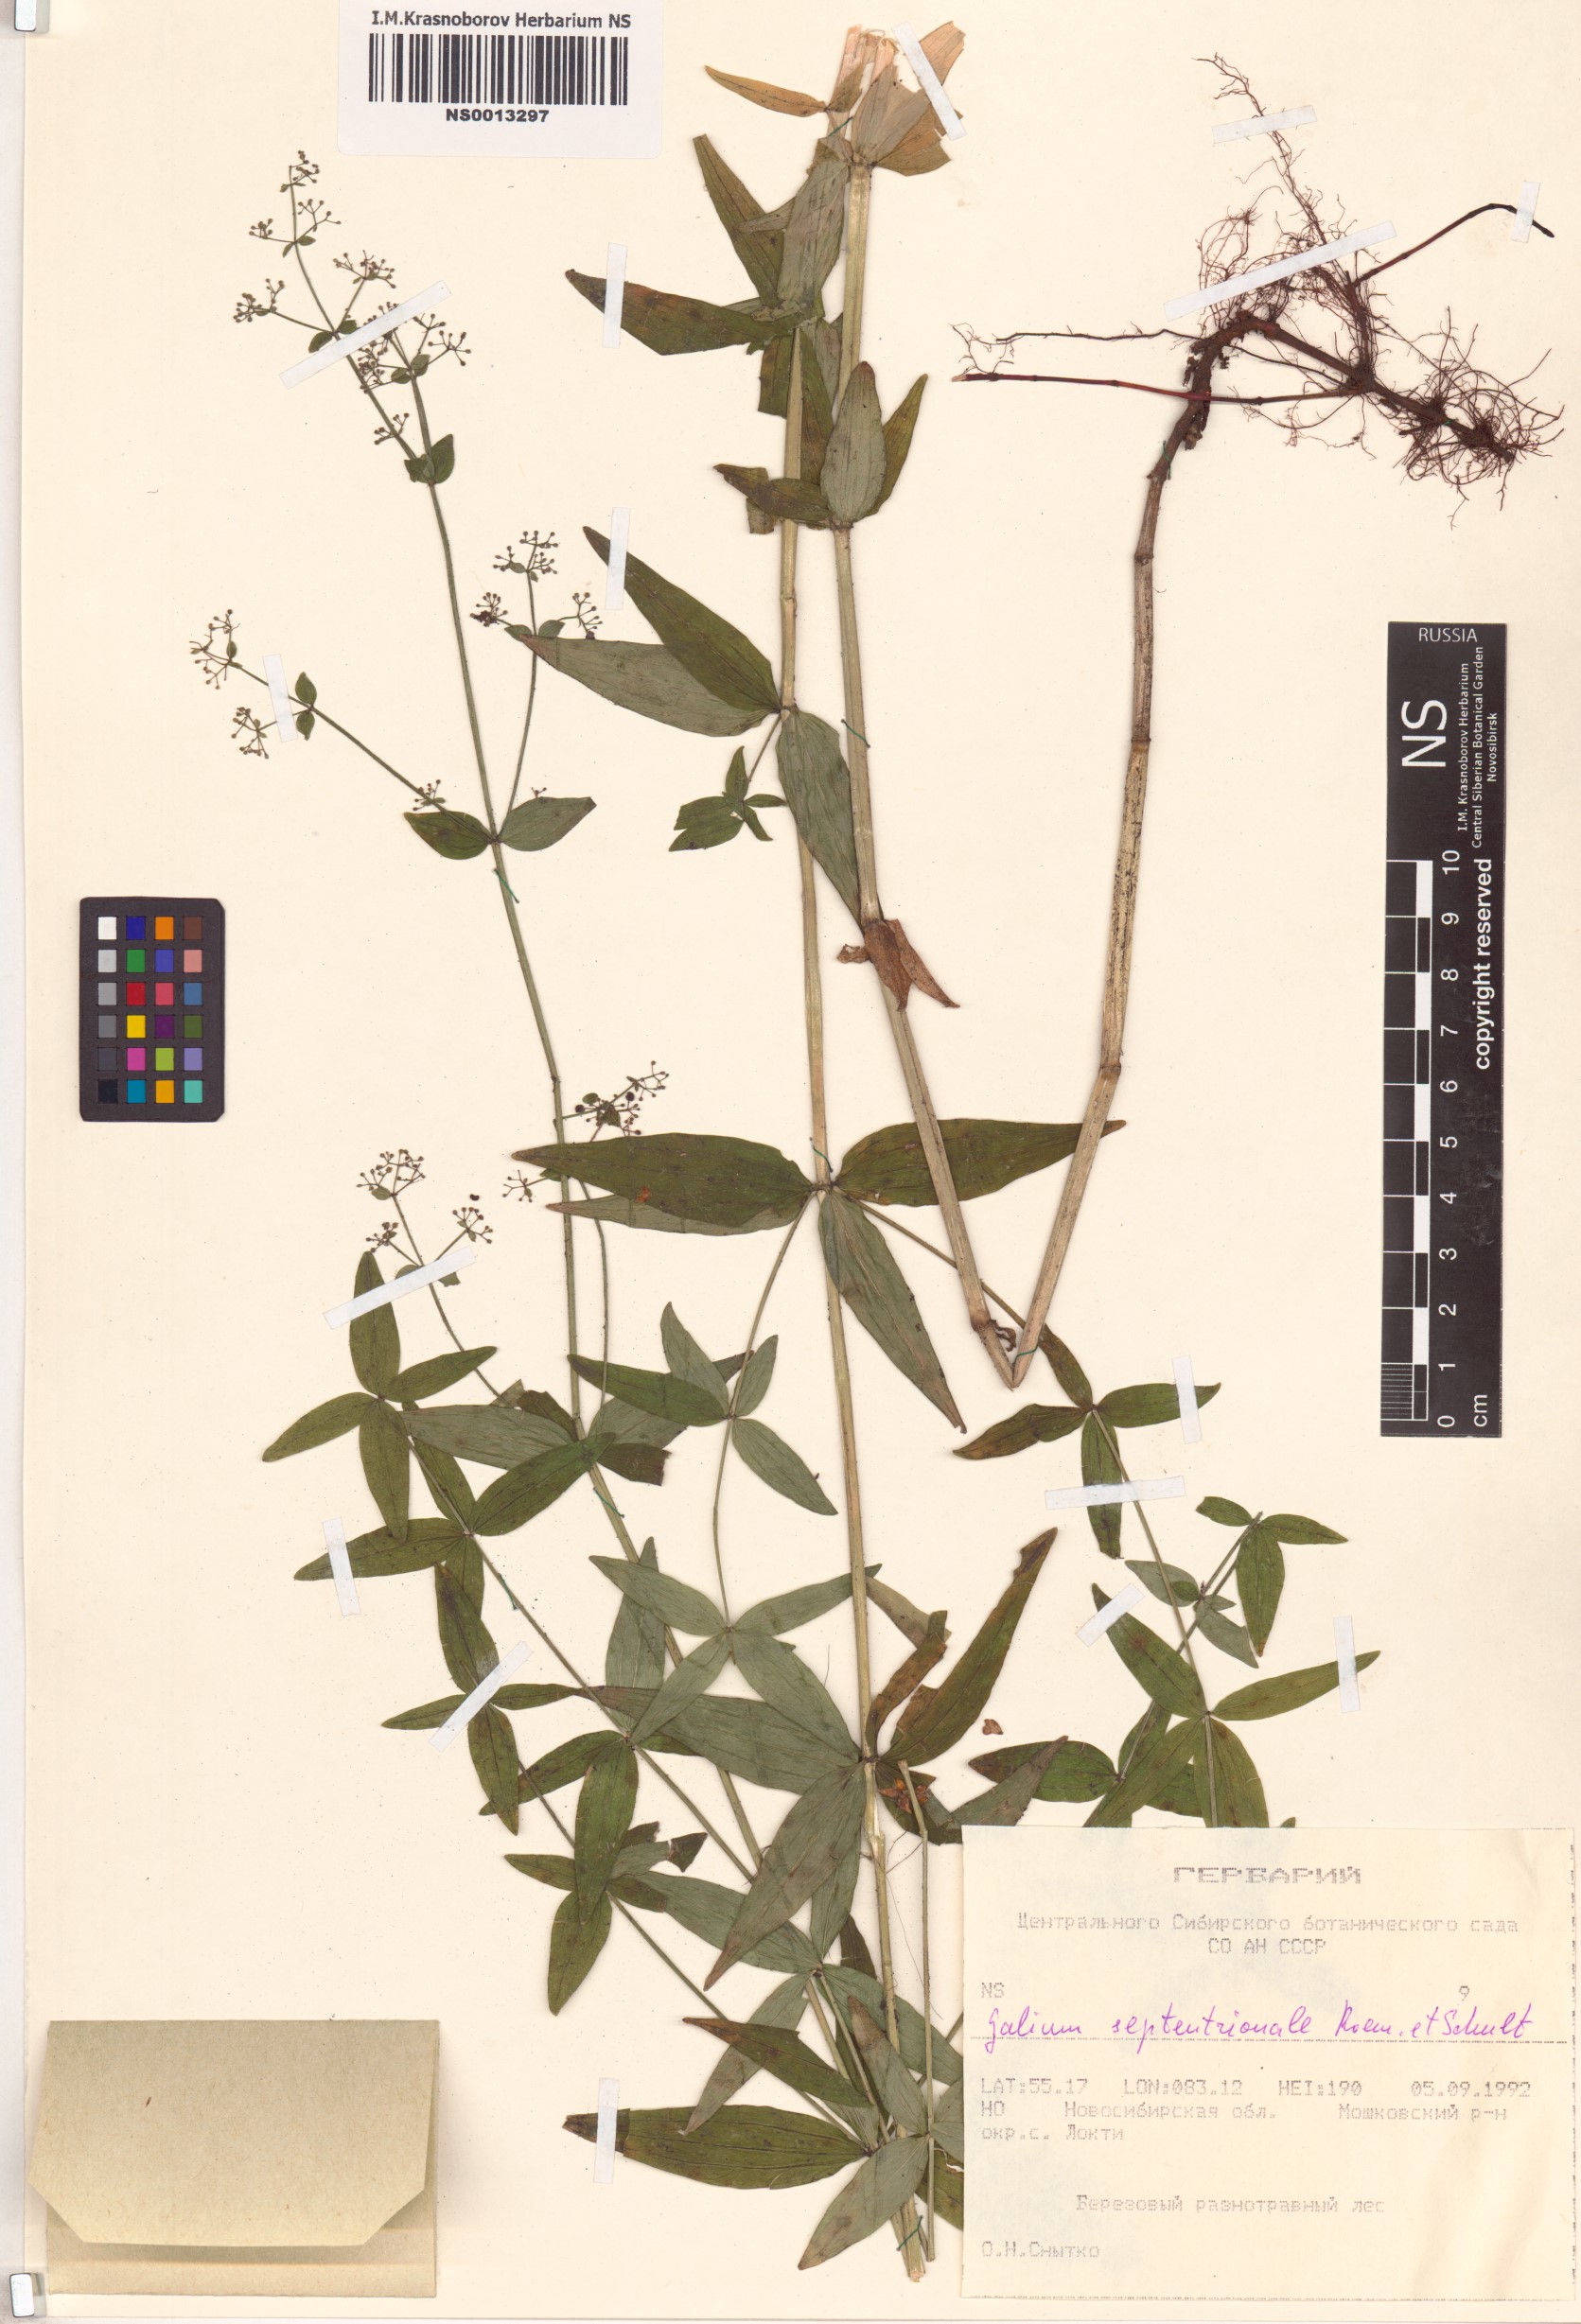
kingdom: Plantae
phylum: Tracheophyta
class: Magnoliopsida
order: Gentianales
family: Rubiaceae
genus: Galium
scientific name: Galium boreale
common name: Northern bedstraw
